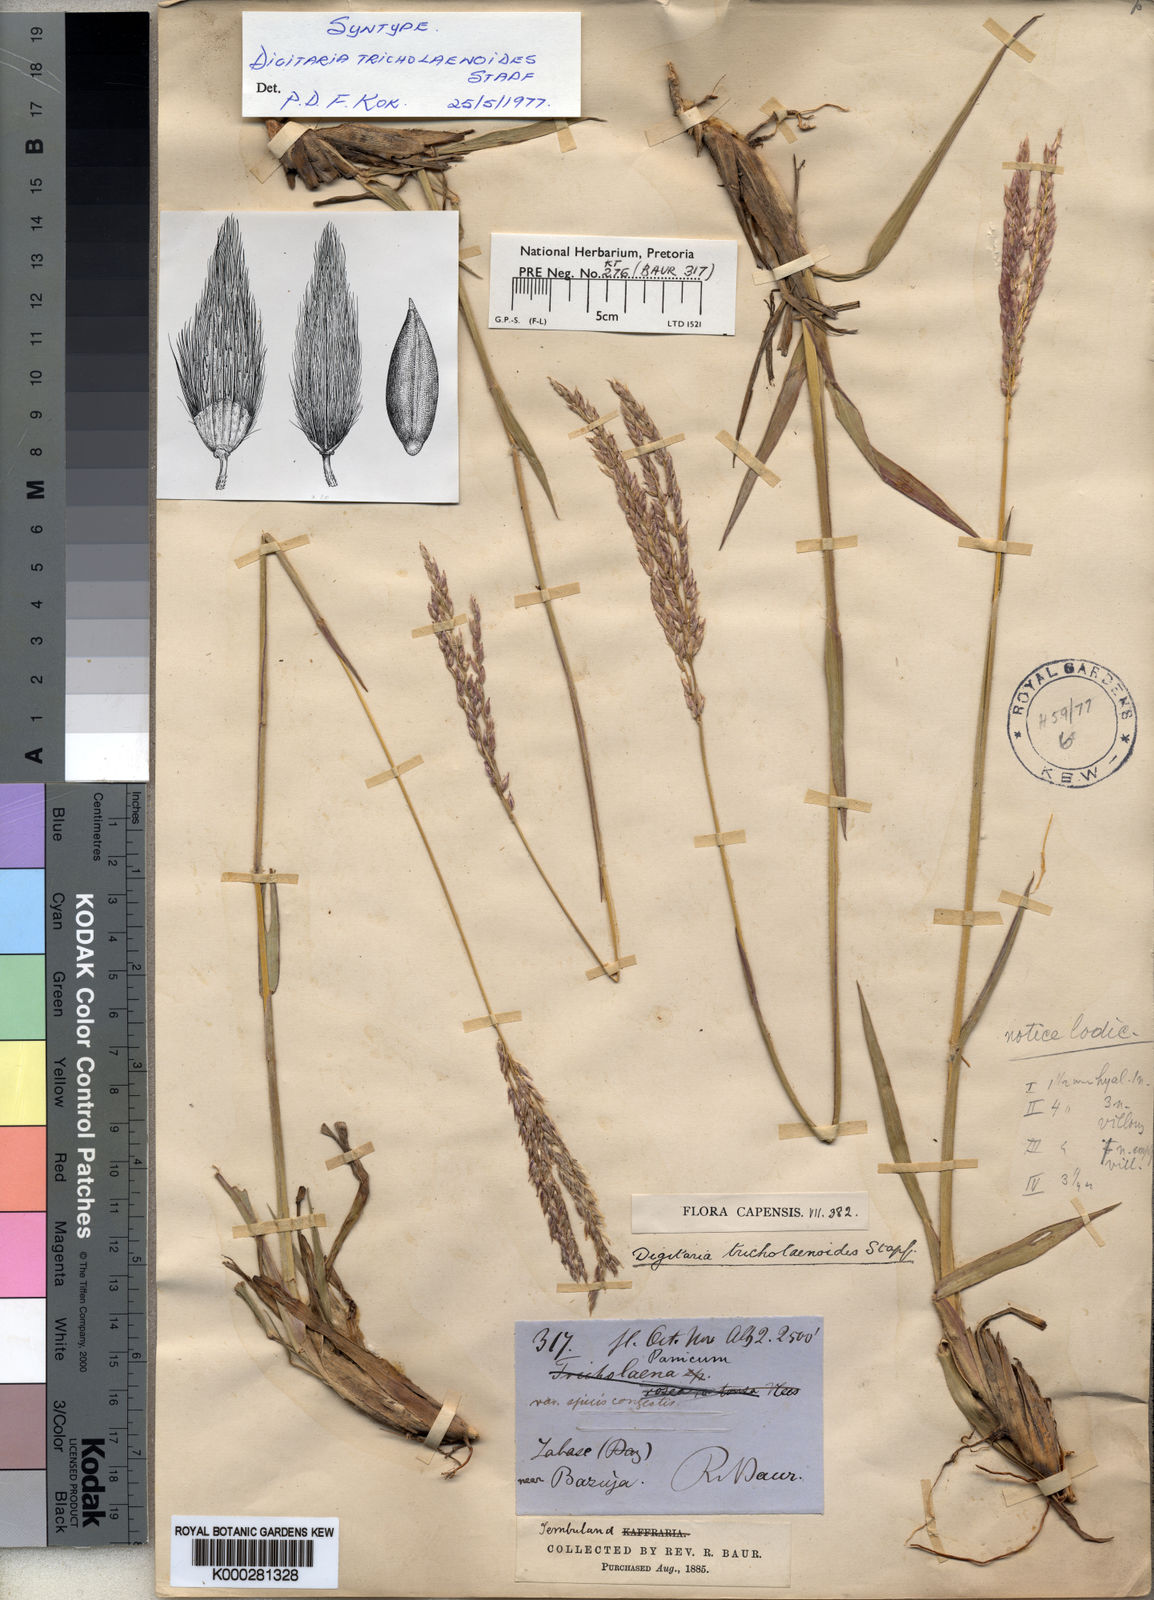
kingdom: Plantae
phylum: Tracheophyta
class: Liliopsida
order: Poales
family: Poaceae
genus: Digitaria
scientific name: Digitaria tricholaenoides
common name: Purple finger grass
